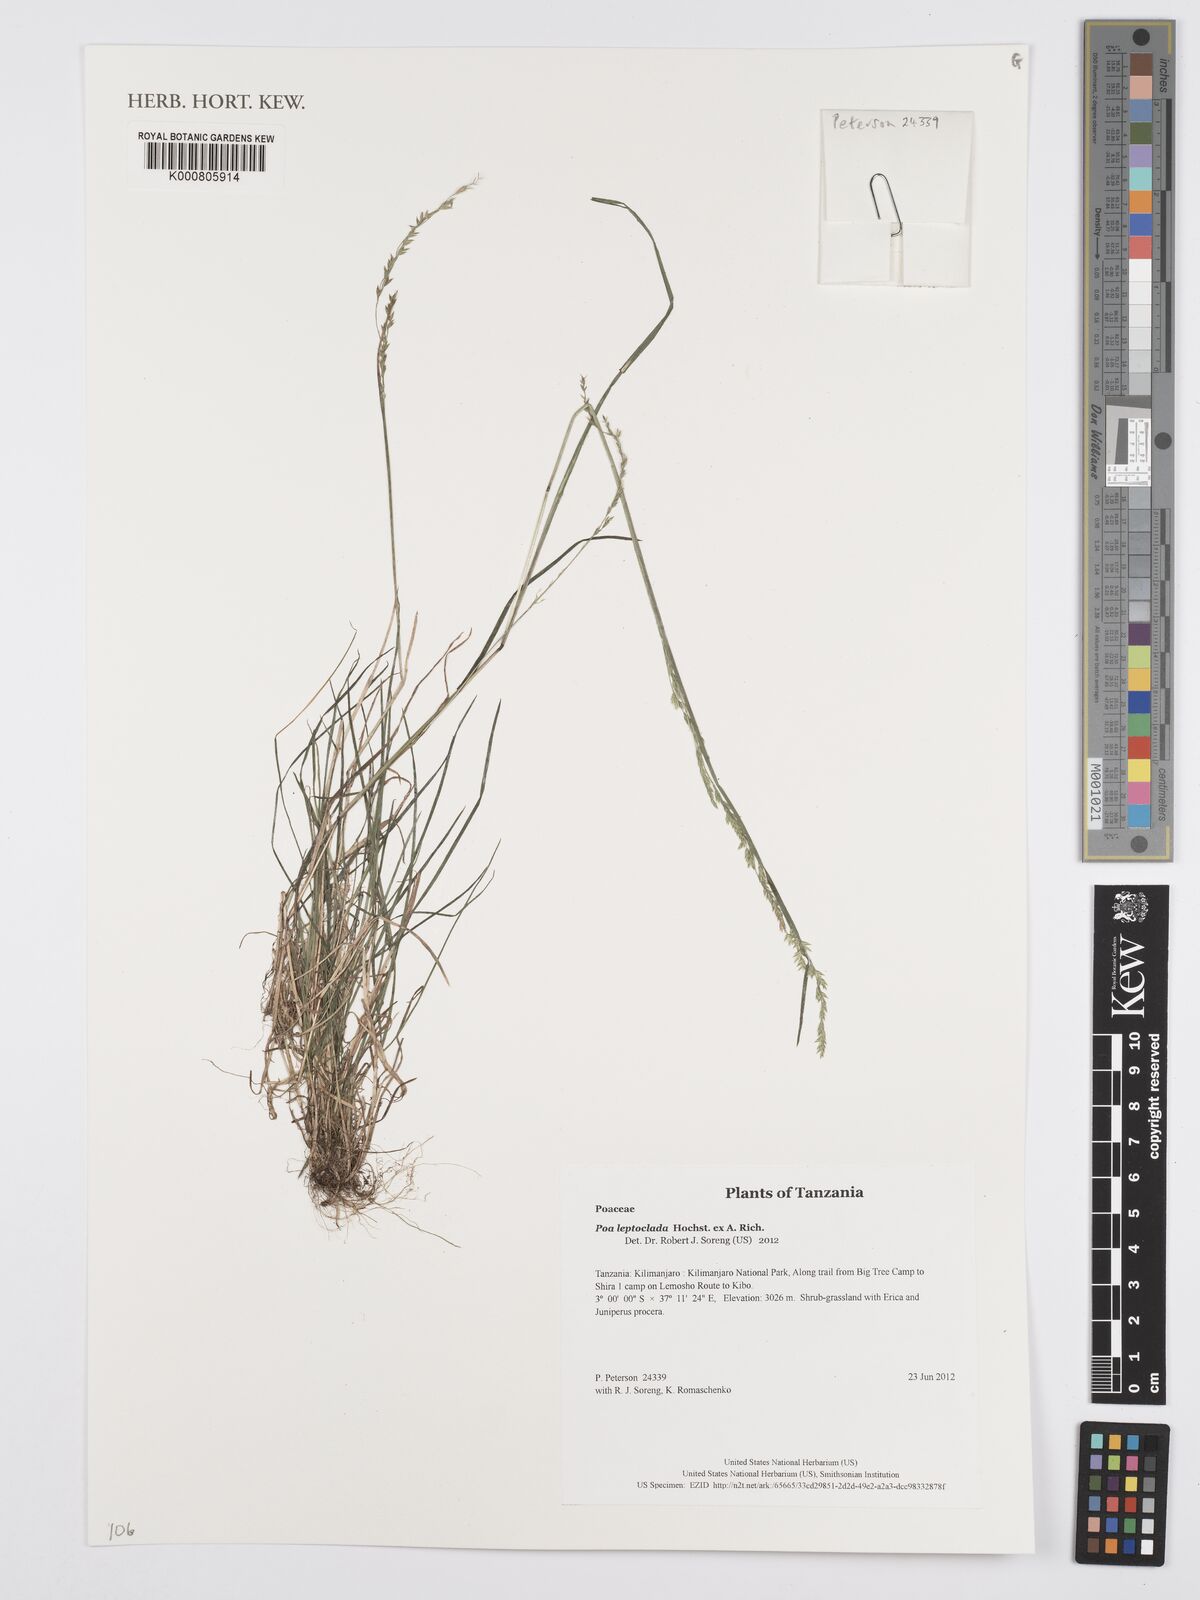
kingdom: Plantae
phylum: Tracheophyta
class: Liliopsida
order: Poales
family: Poaceae
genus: Poa
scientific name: Poa leptoclada
